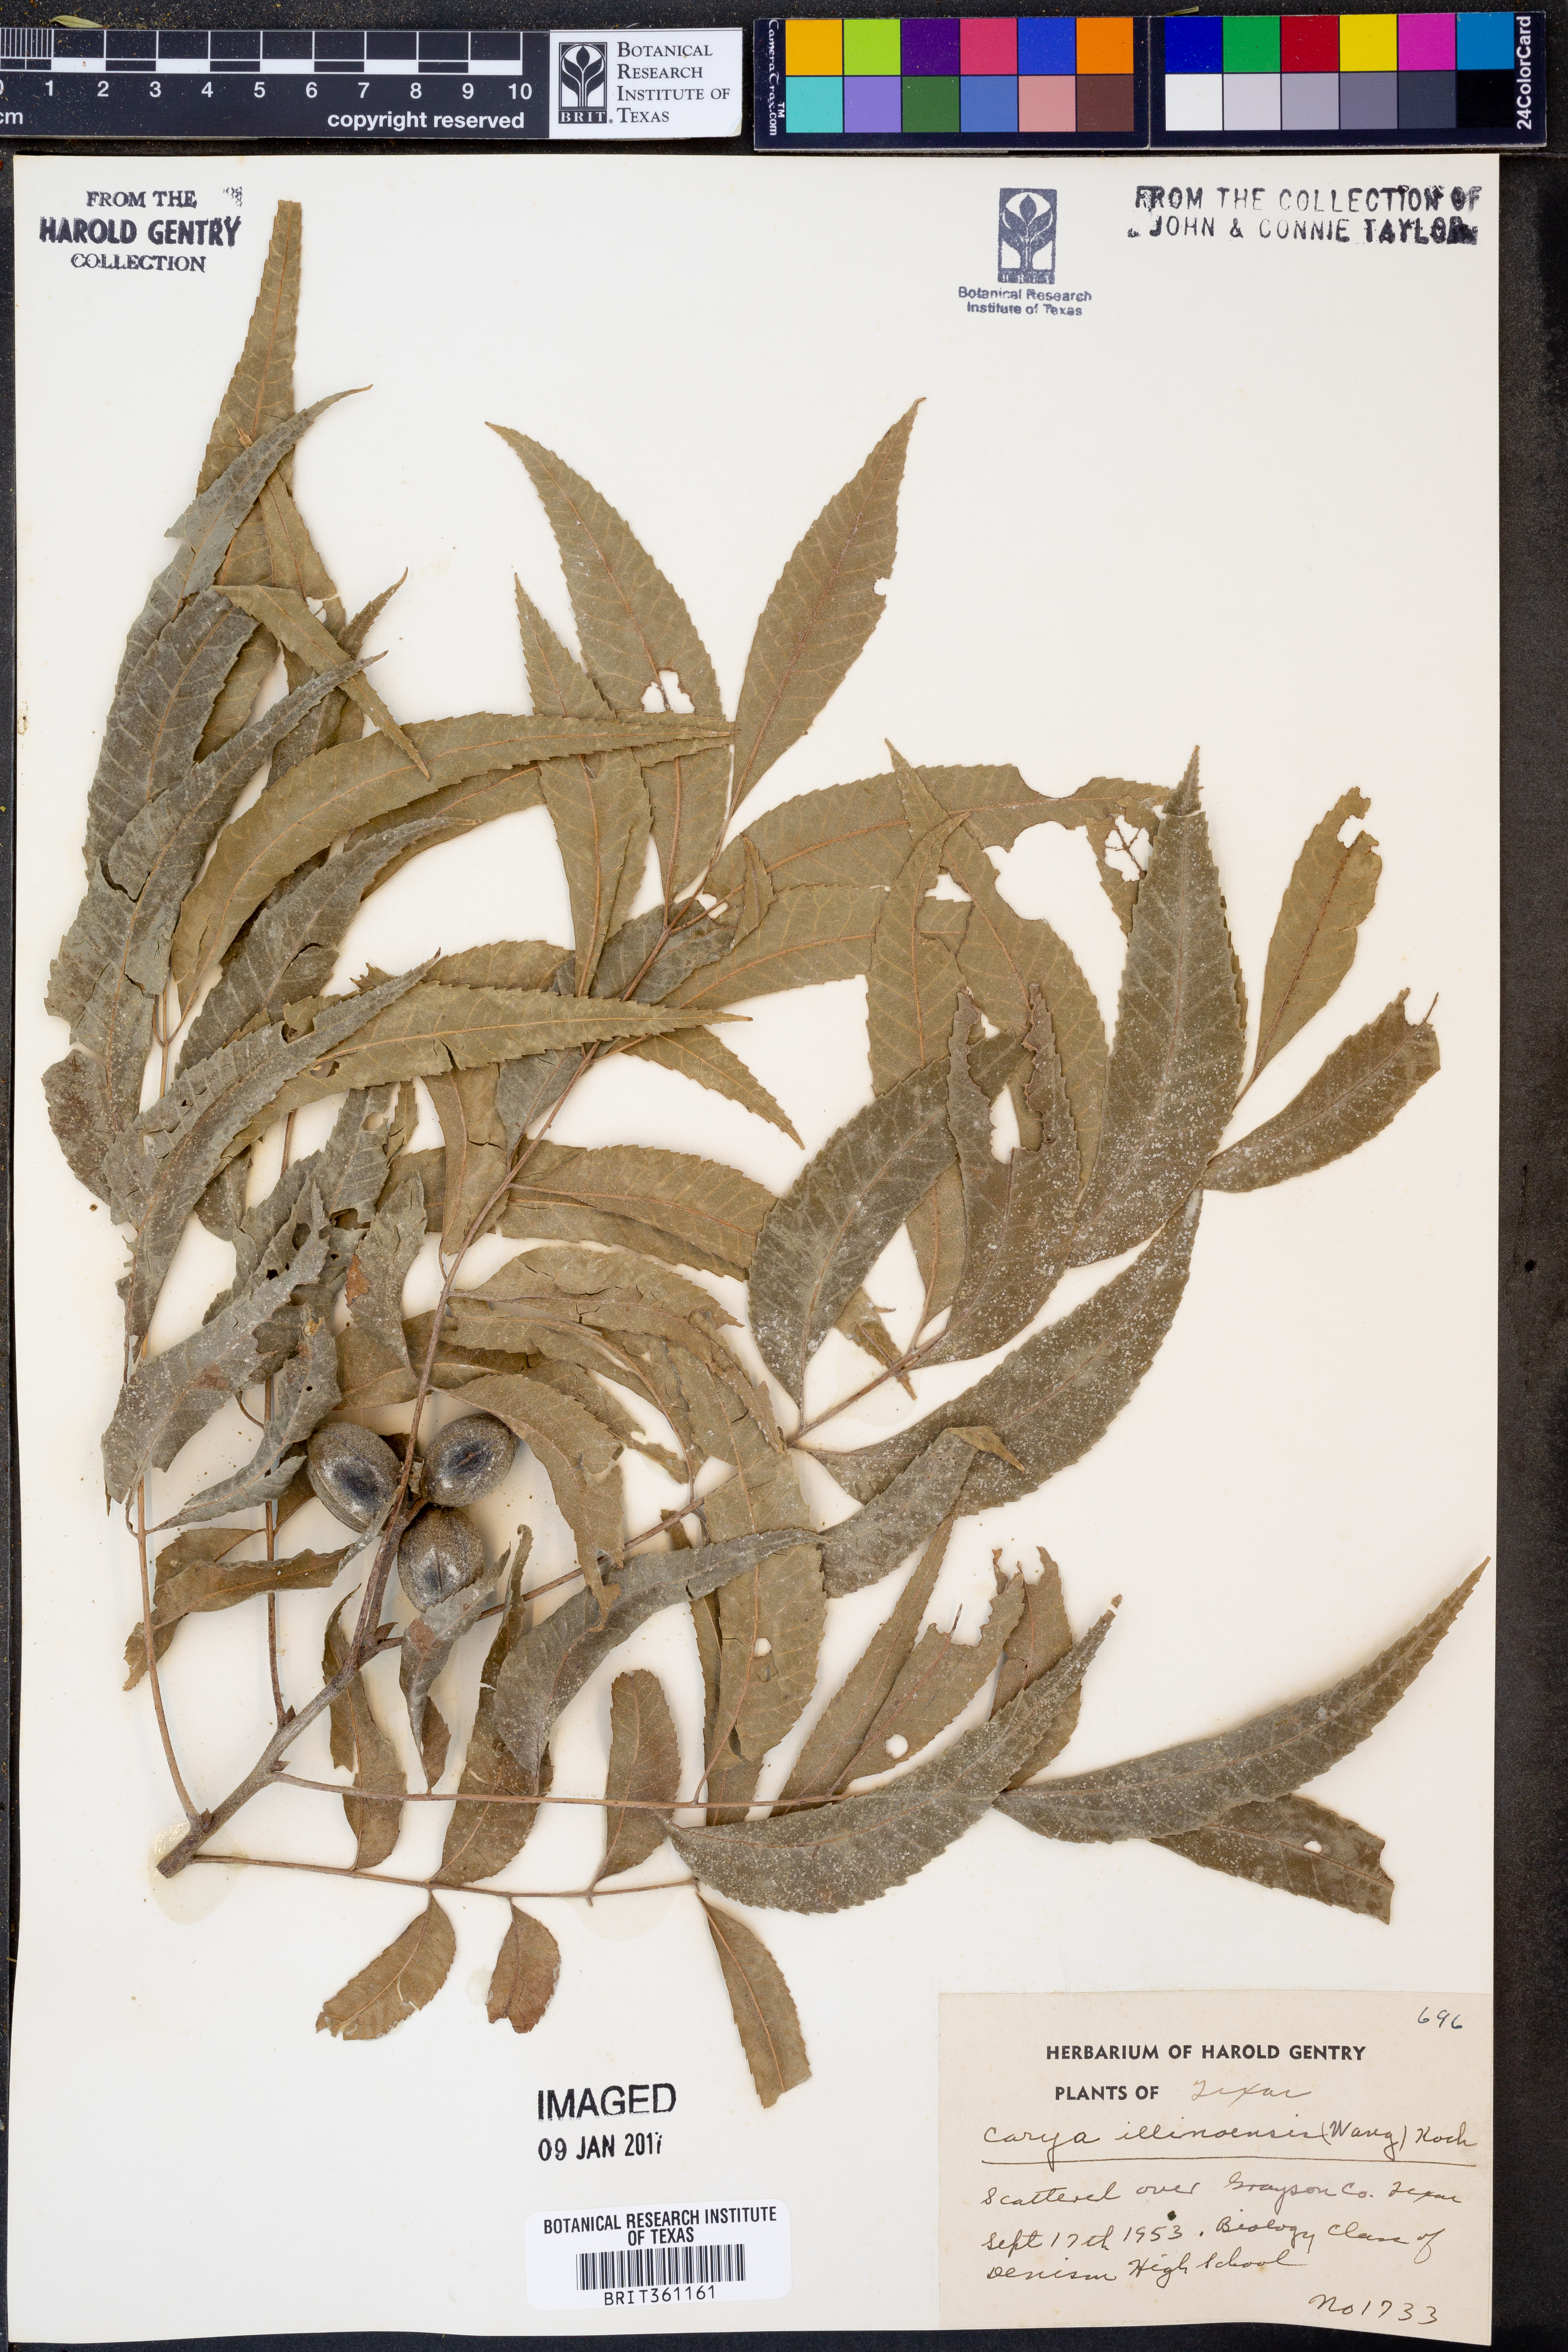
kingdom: Plantae
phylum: Tracheophyta
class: Magnoliopsida
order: Fagales
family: Juglandaceae
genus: Carya
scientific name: Carya illinoinensis
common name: Pecan
